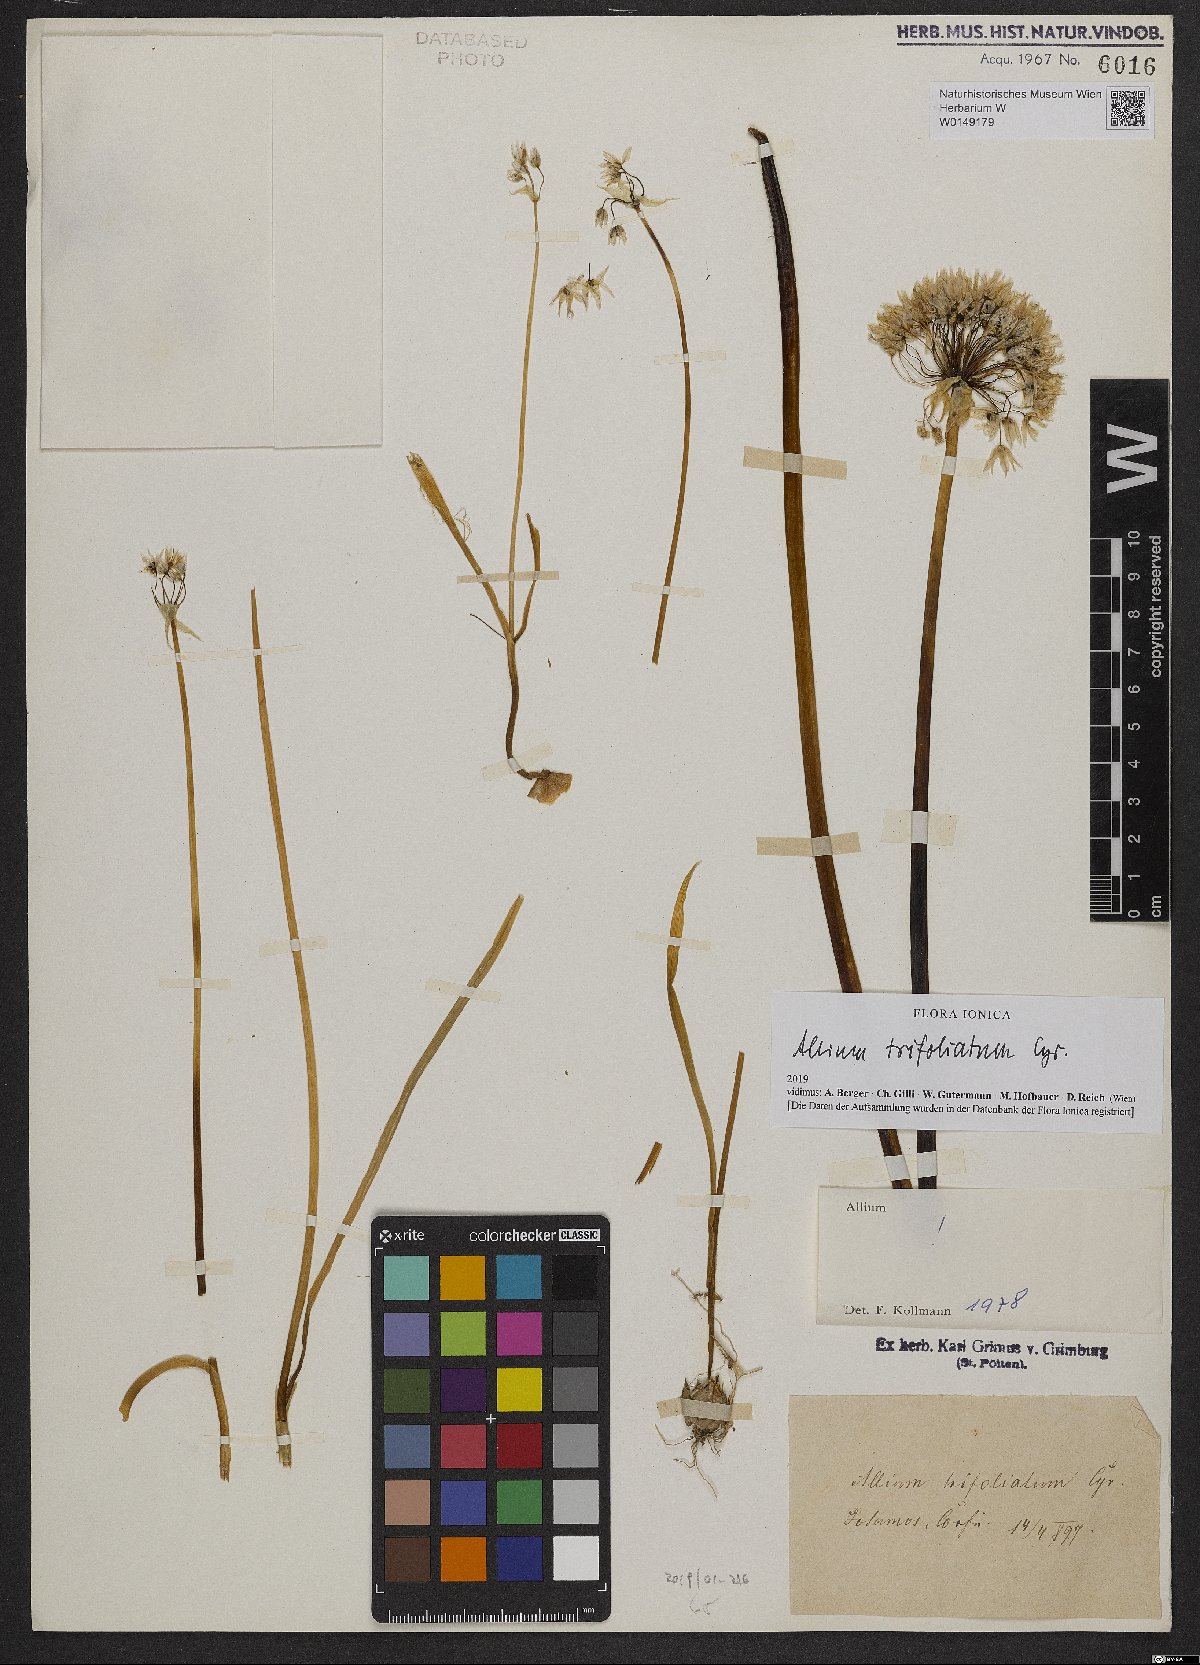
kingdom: Plantae
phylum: Tracheophyta
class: Liliopsida
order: Asparagales
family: Amaryllidaceae
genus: Allium
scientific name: Allium trifoliatum
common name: Pink garlic
